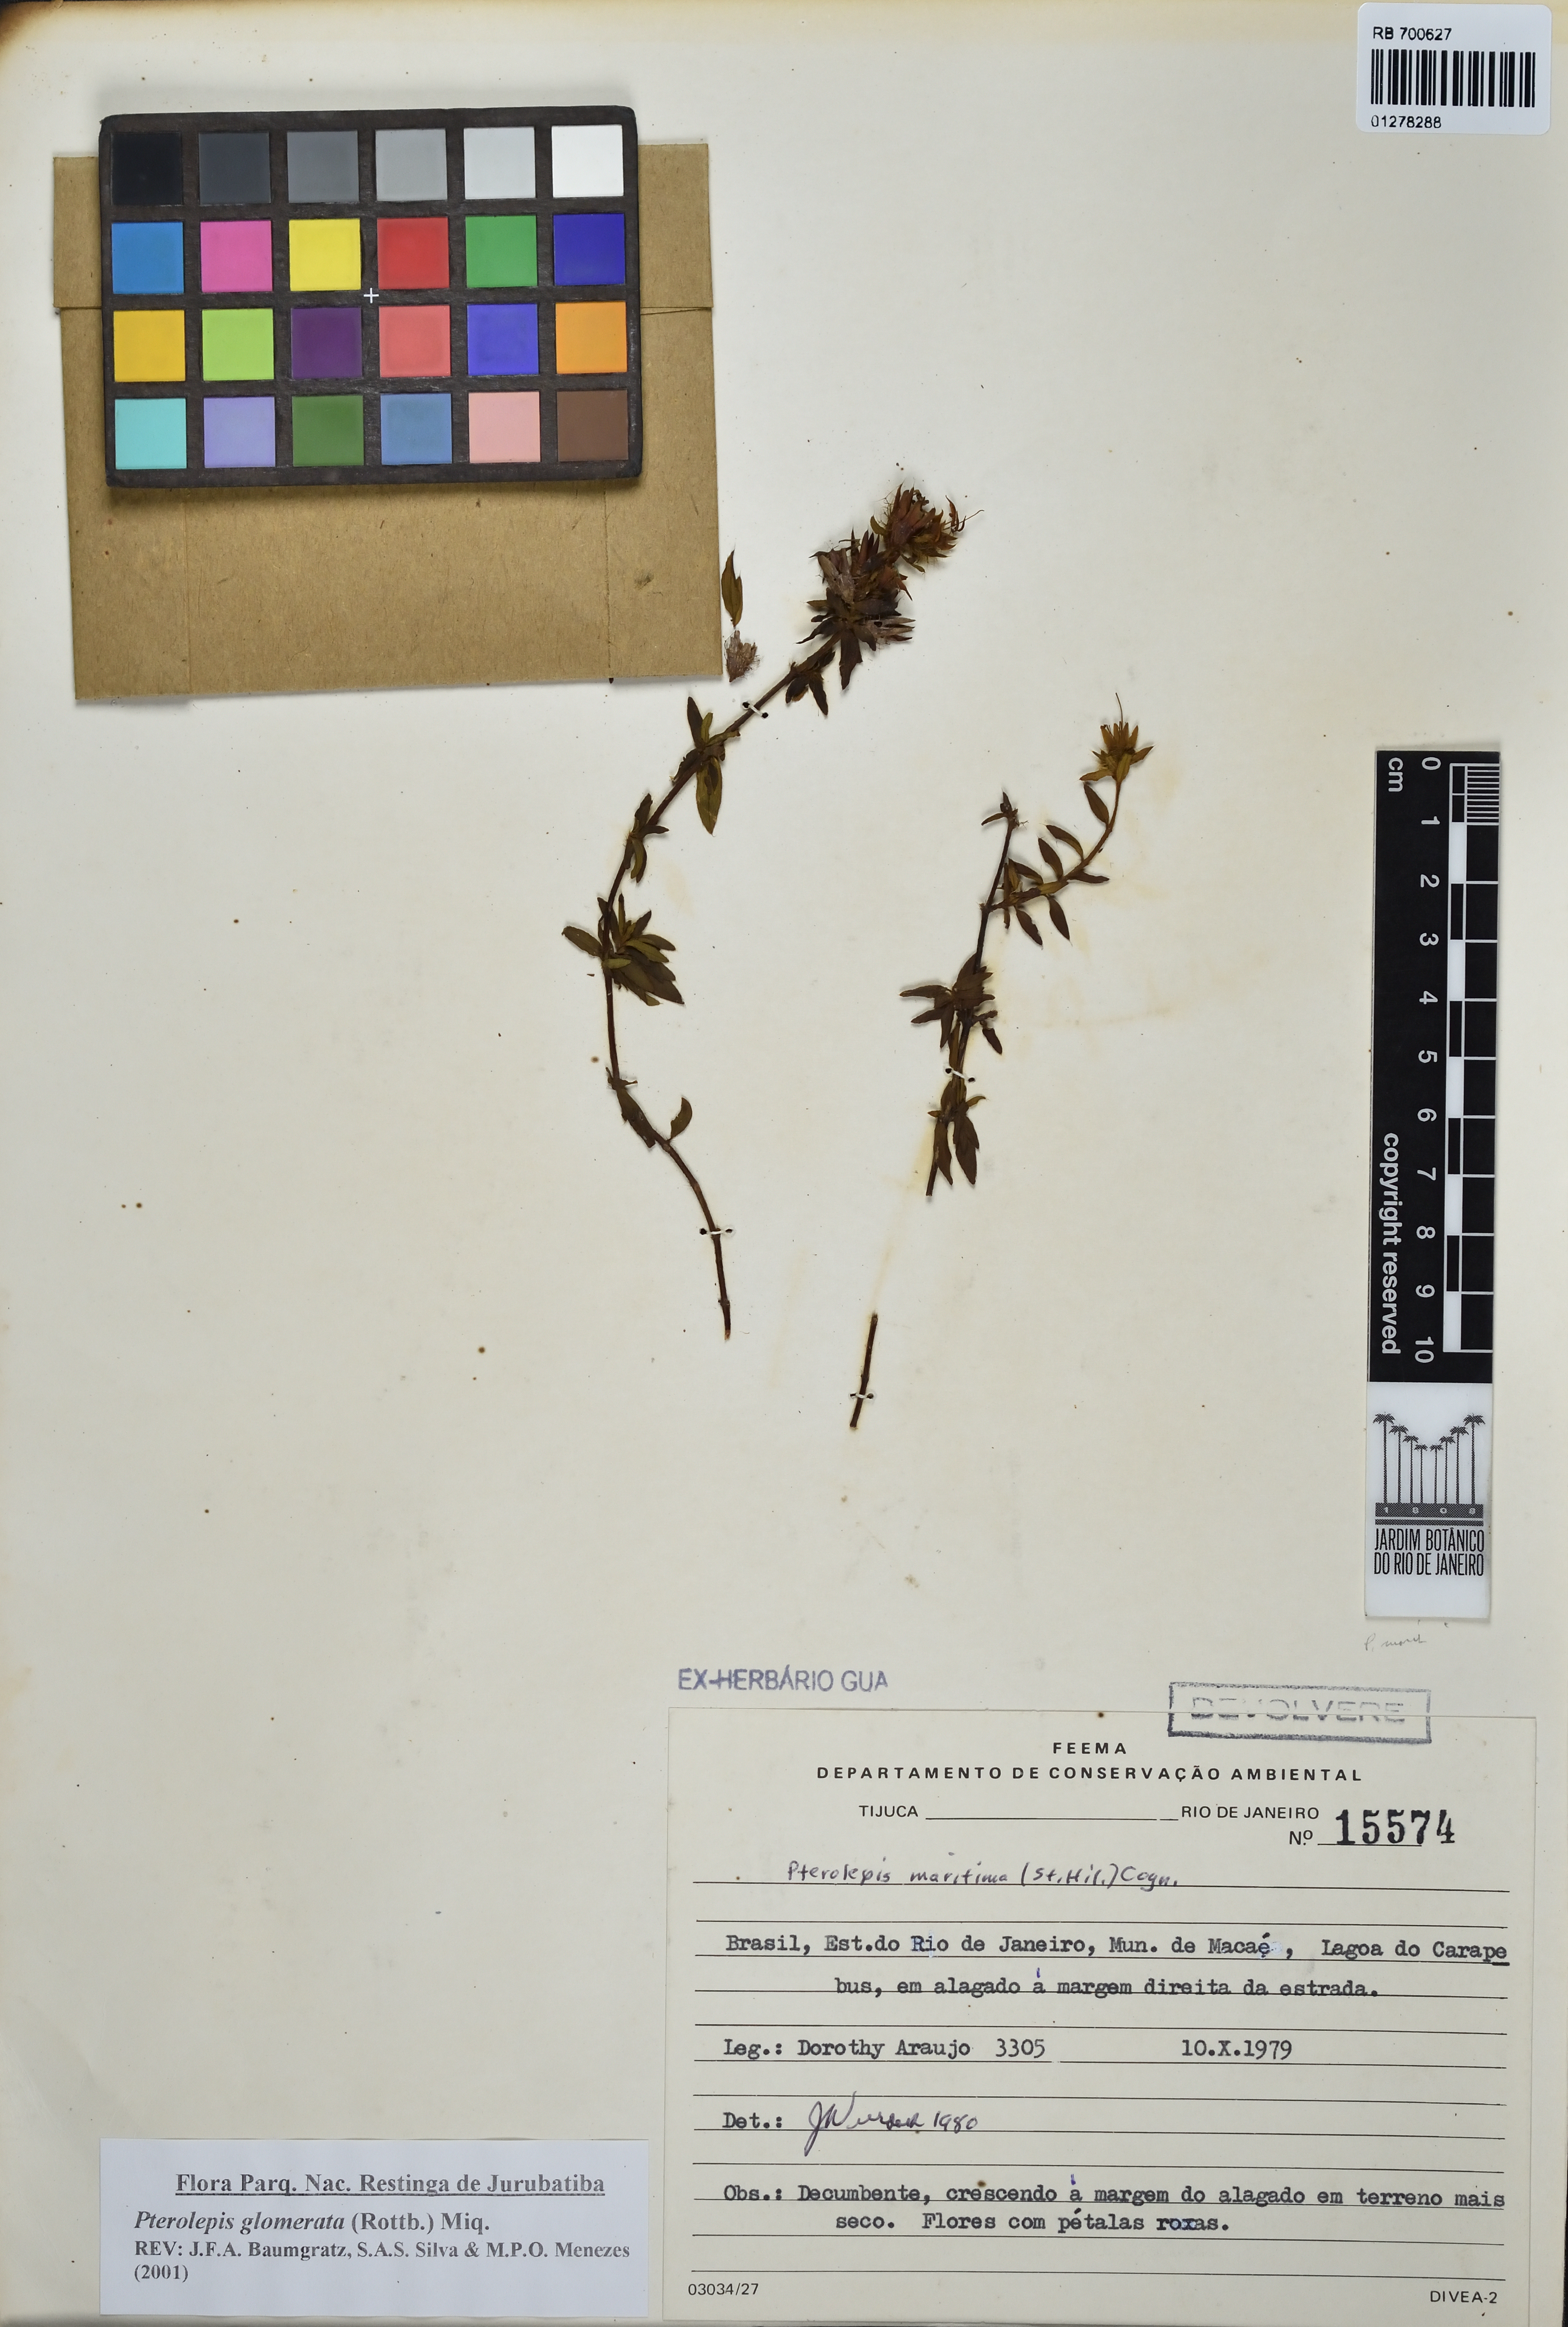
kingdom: Plantae
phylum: Tracheophyta
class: Magnoliopsida
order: Myrtales
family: Melastomataceae
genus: Pterolepis
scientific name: Pterolepis glomerata
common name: False meadowbeauty
